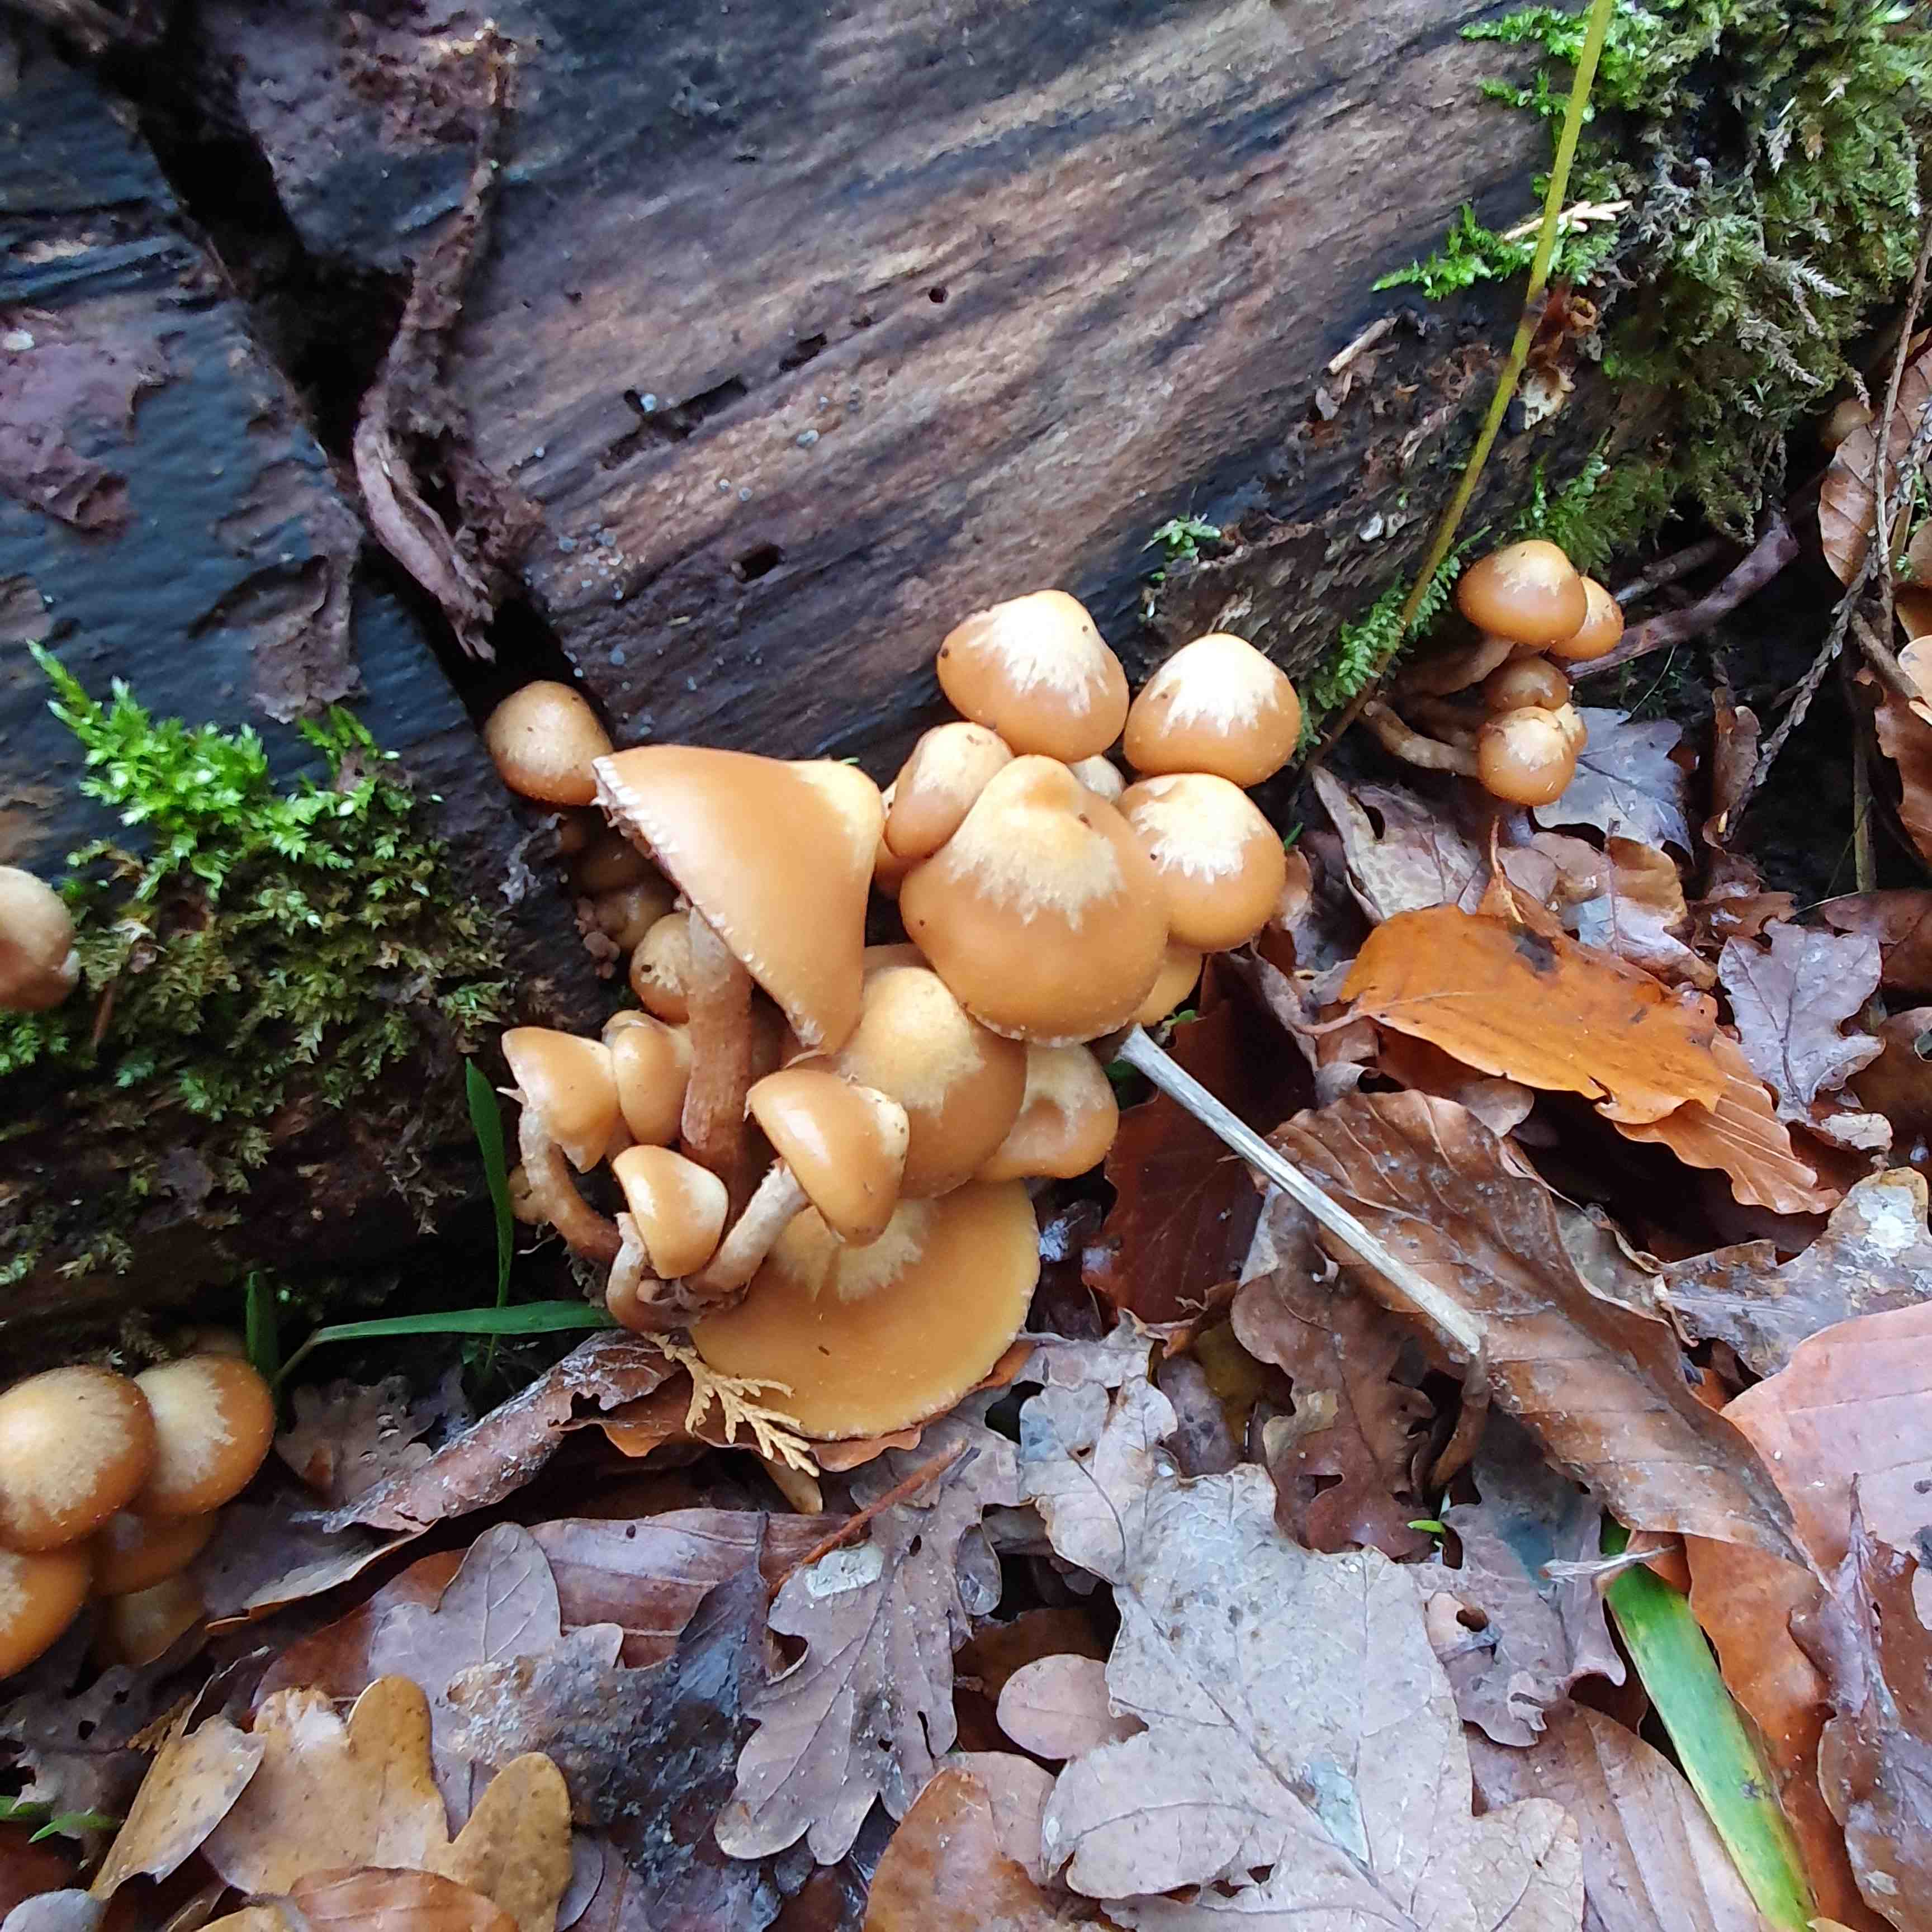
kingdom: Fungi
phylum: Basidiomycota
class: Agaricomycetes
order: Agaricales
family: Strophariaceae
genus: Kuehneromyces
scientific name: Kuehneromyces mutabilis
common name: foranderlig skælhat
